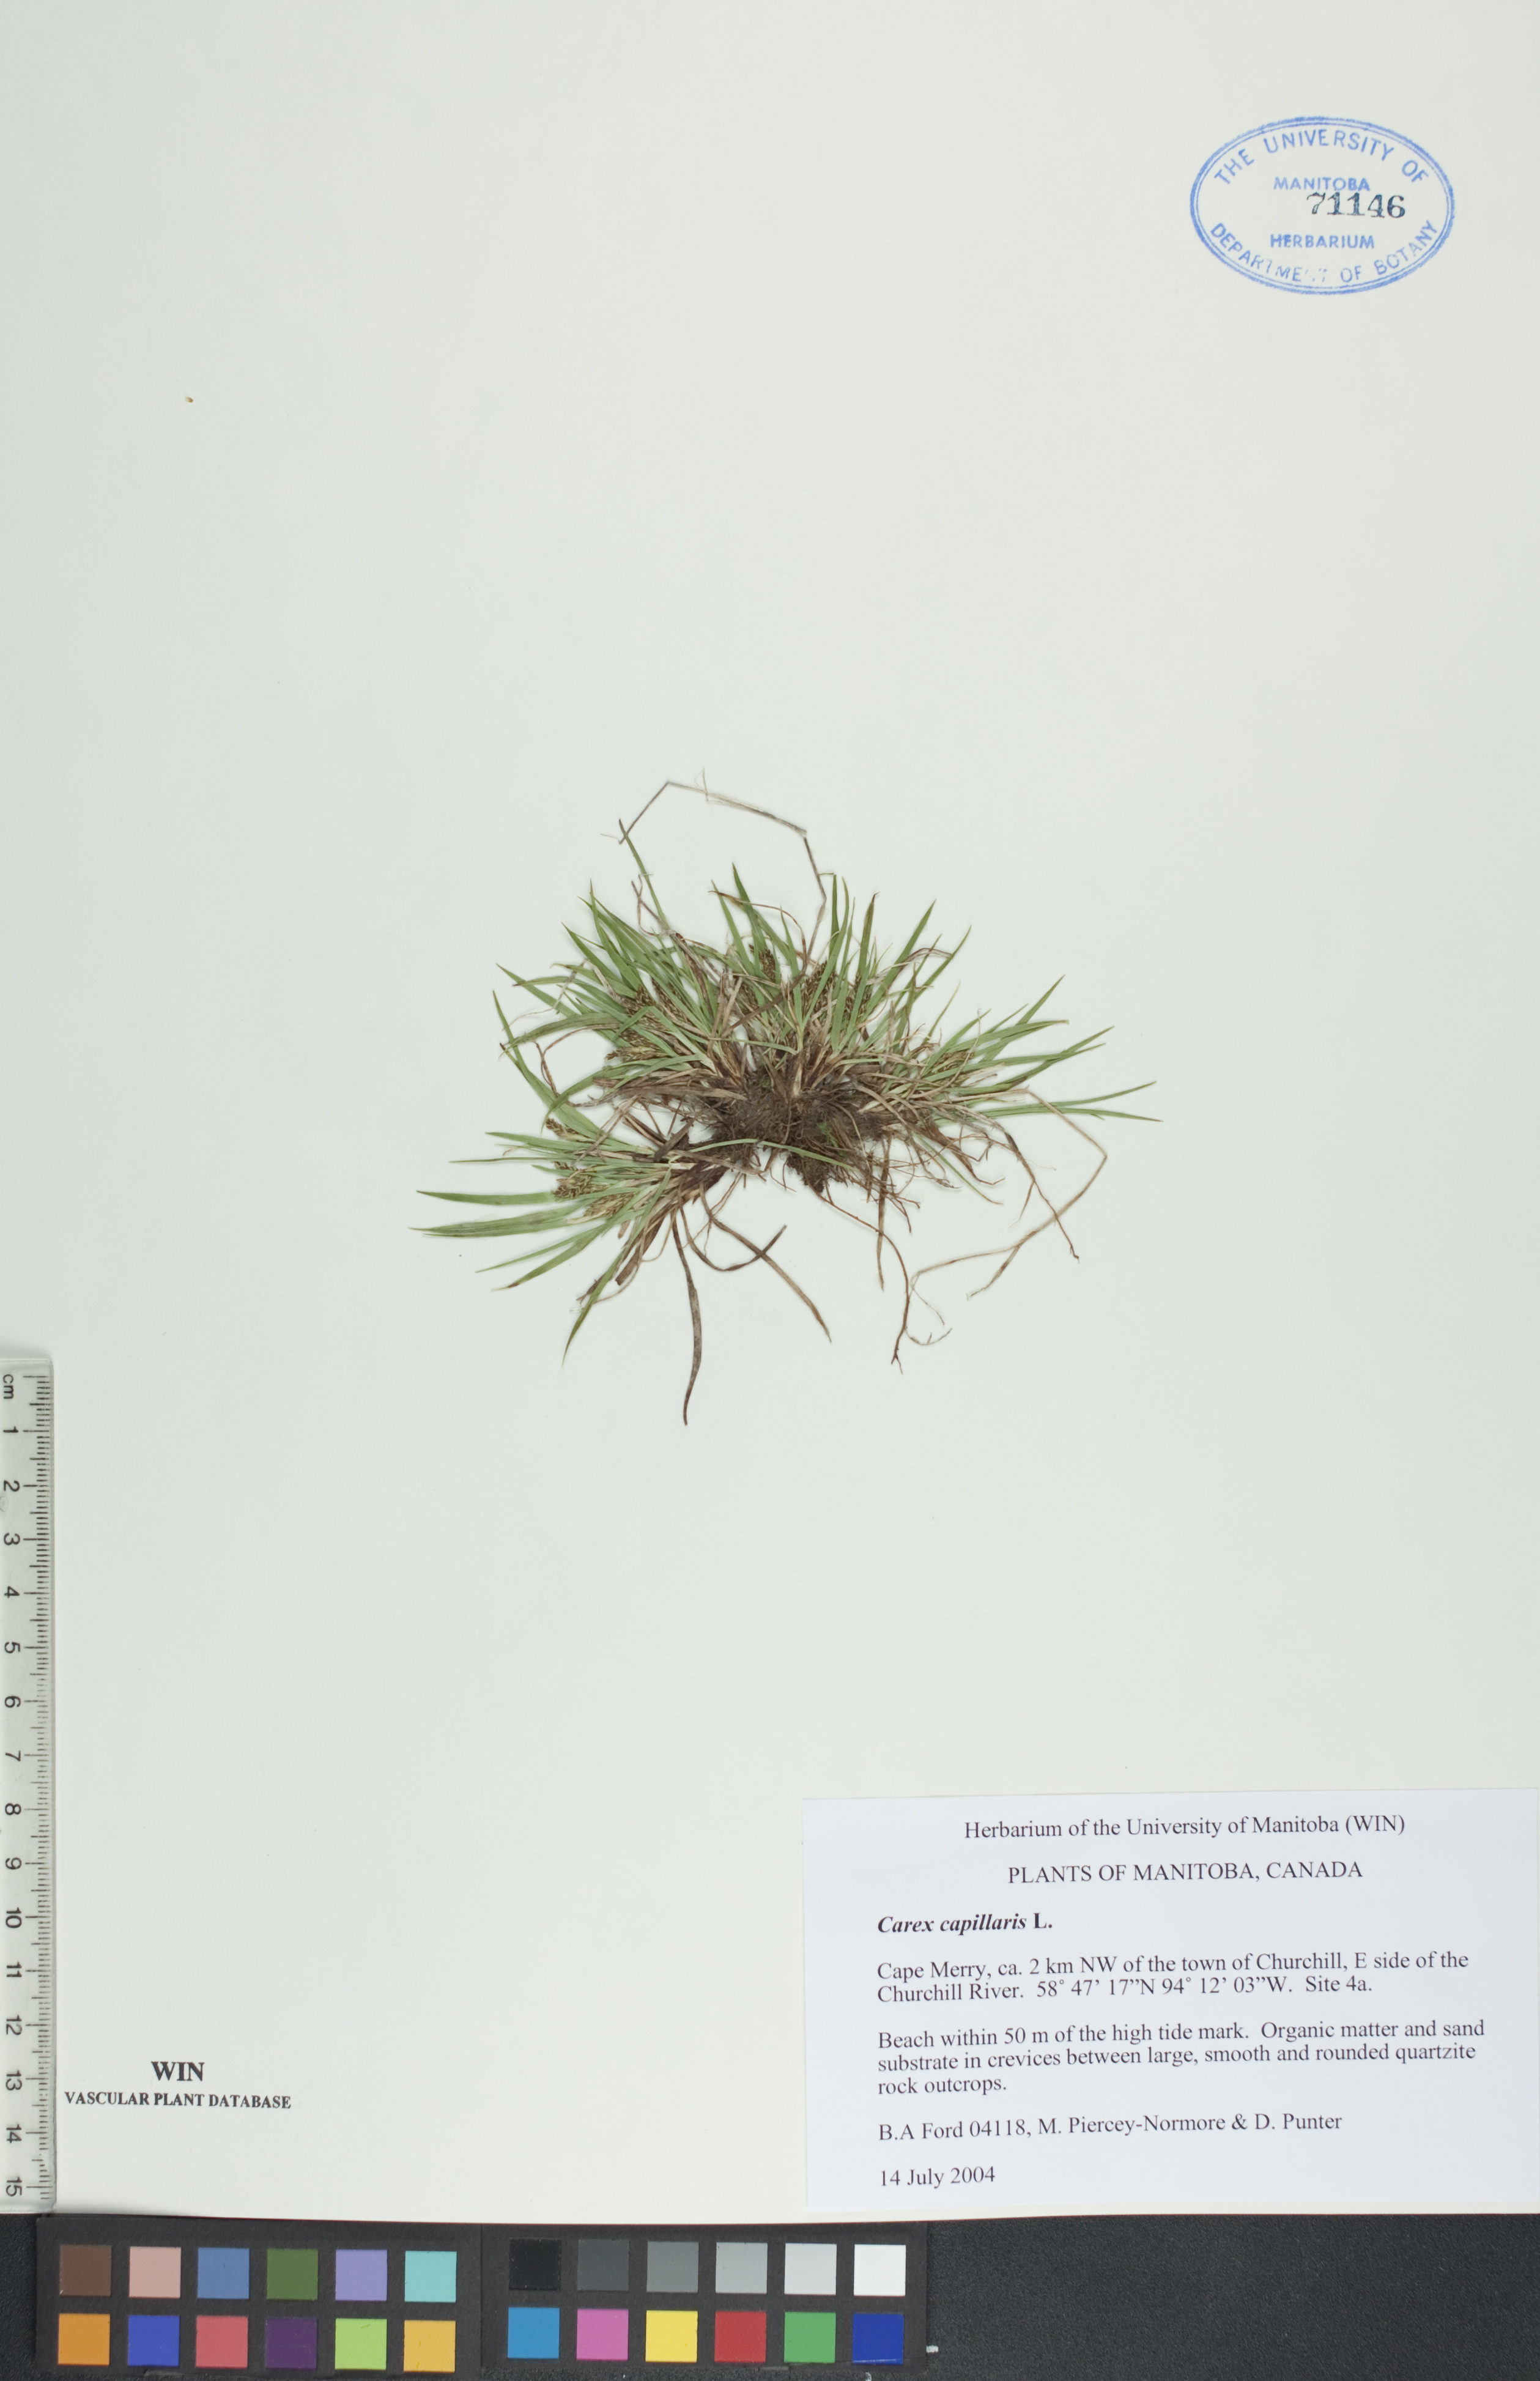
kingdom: Plantae
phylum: Tracheophyta
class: Liliopsida
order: Poales
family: Cyperaceae
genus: Carex
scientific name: Carex capillaris
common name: Hair sedge
